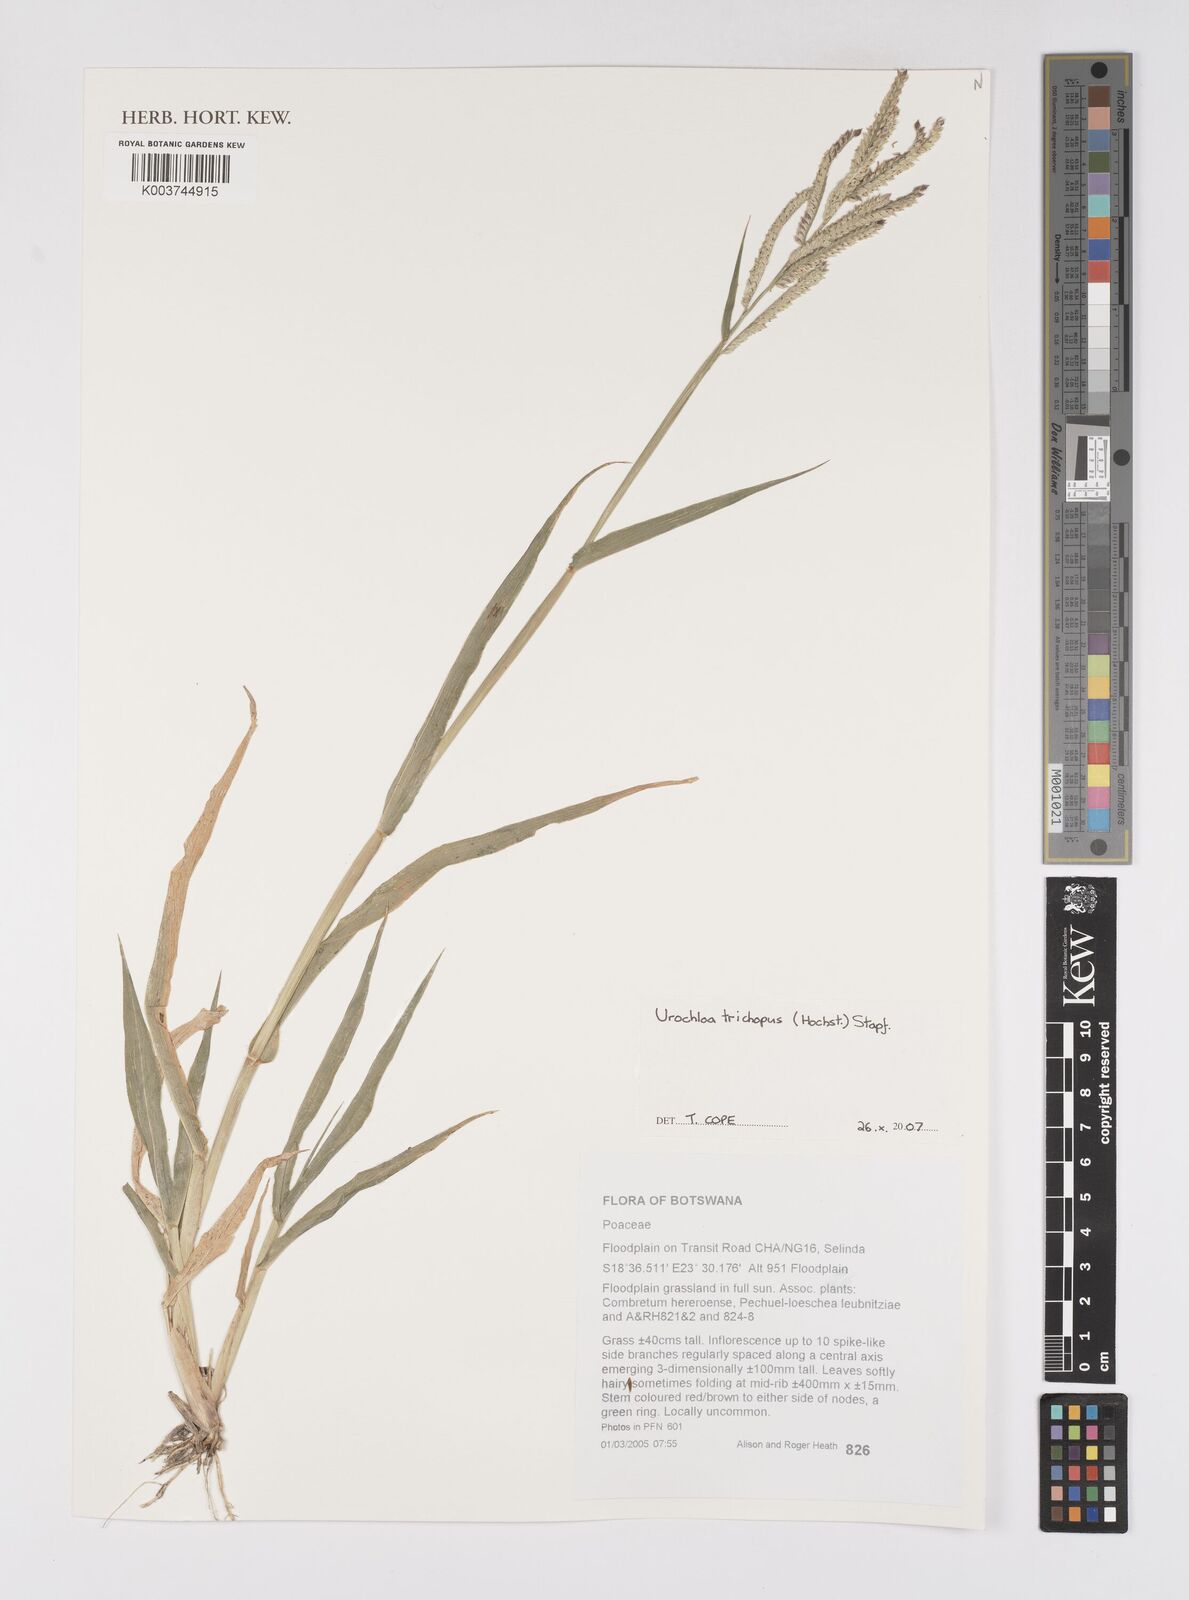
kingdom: Plantae
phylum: Tracheophyta
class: Liliopsida
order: Poales
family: Poaceae
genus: Urochloa
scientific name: Urochloa trichopus
